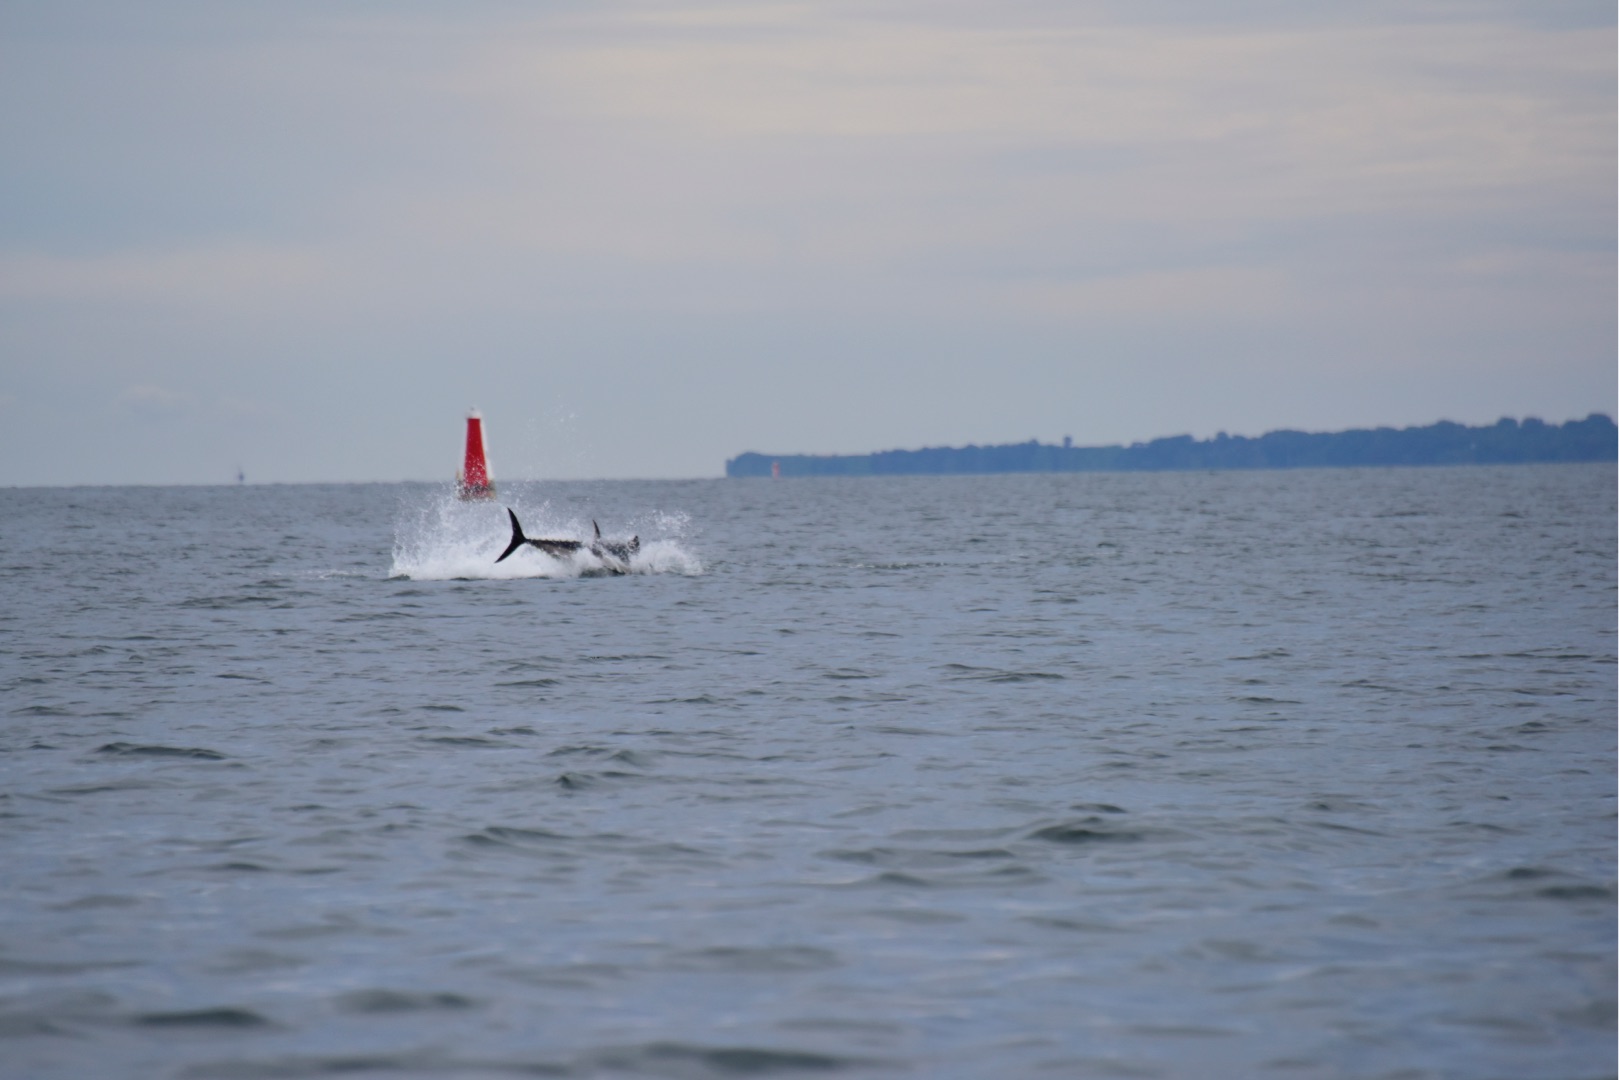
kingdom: Animalia
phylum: Chordata
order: Perciformes
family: Scombridae
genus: Thunnus
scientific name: Thunnus thynnus
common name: Atlantisk tun
